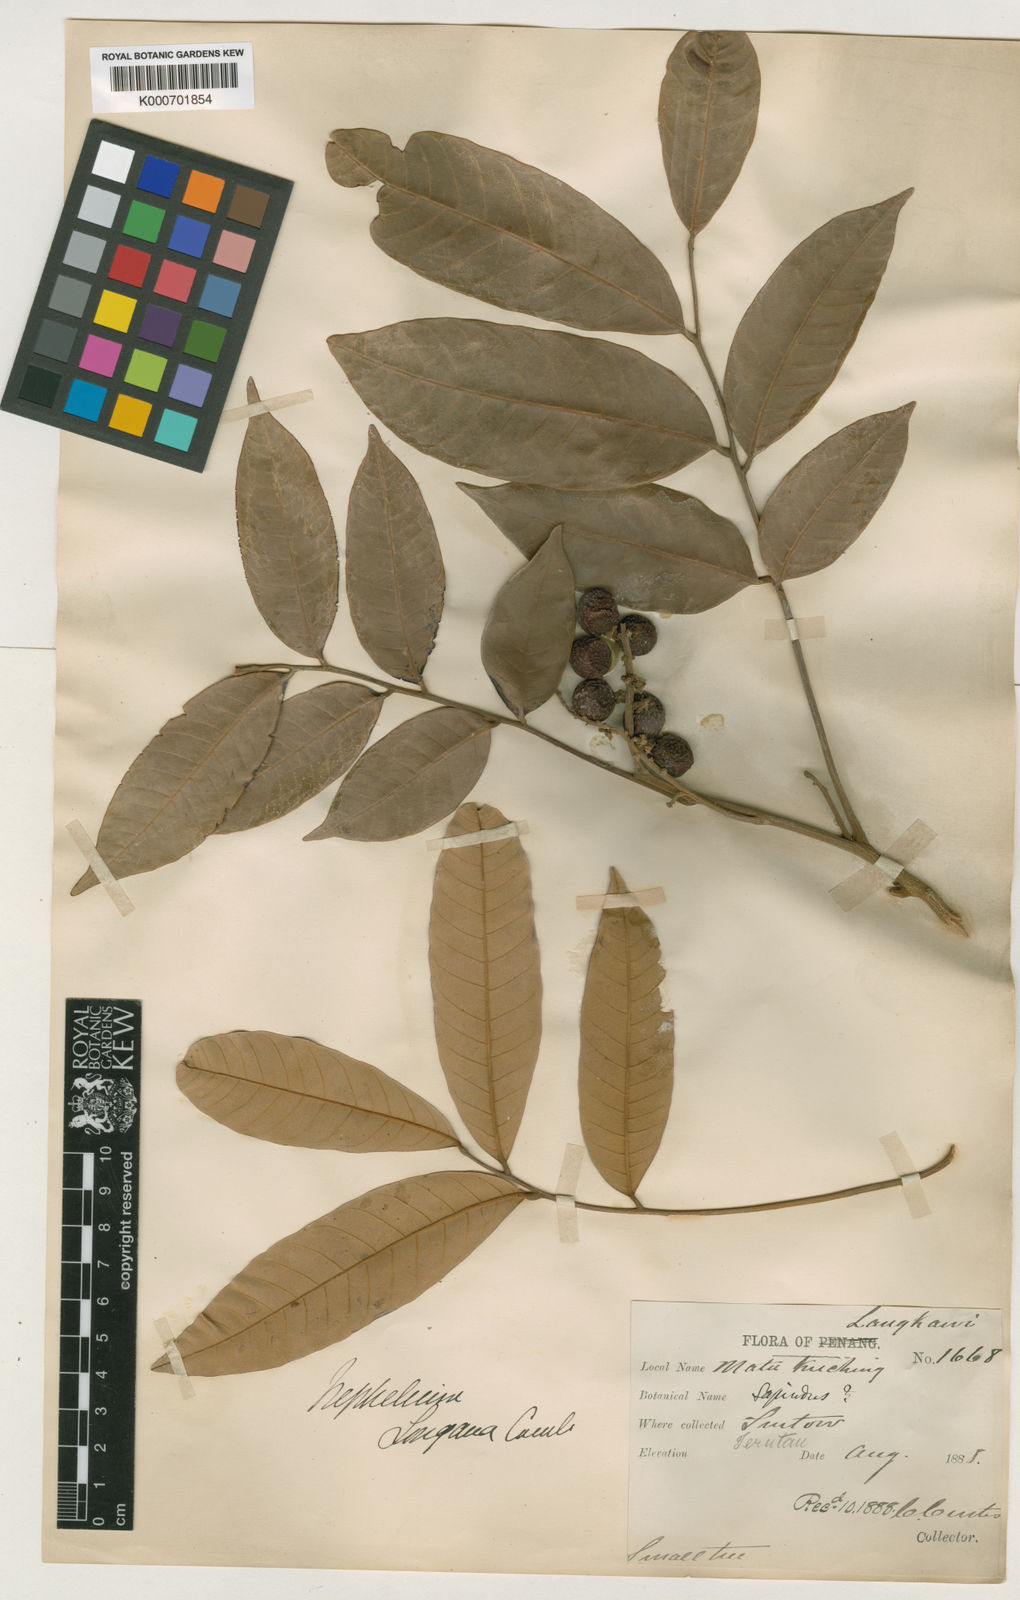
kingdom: Plantae
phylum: Tracheophyta
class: Magnoliopsida
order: Sapindales
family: Sapindaceae
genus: Dimocarpus
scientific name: Dimocarpus malesianus
